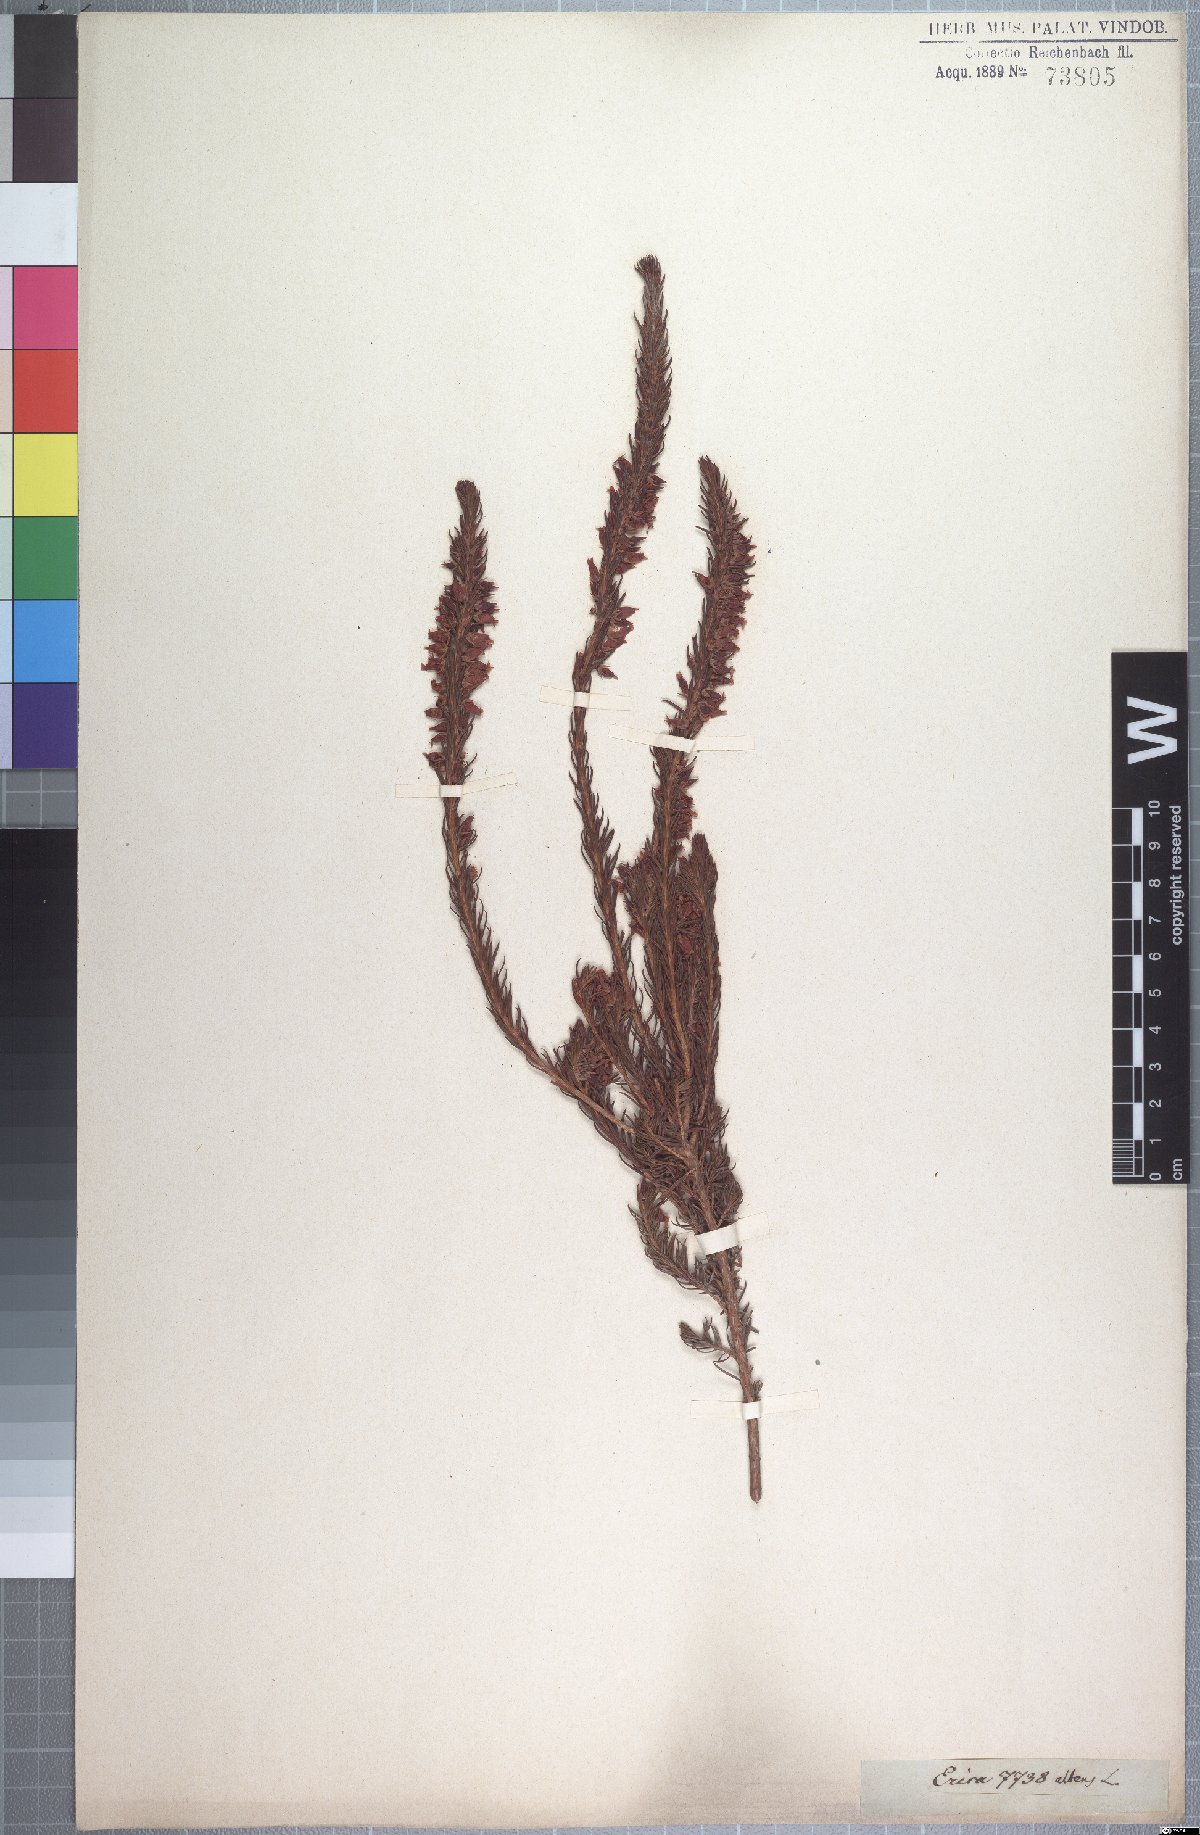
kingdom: Plantae
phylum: Tracheophyta
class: Magnoliopsida
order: Ericales
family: Ericaceae
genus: Erica
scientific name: Erica albens
